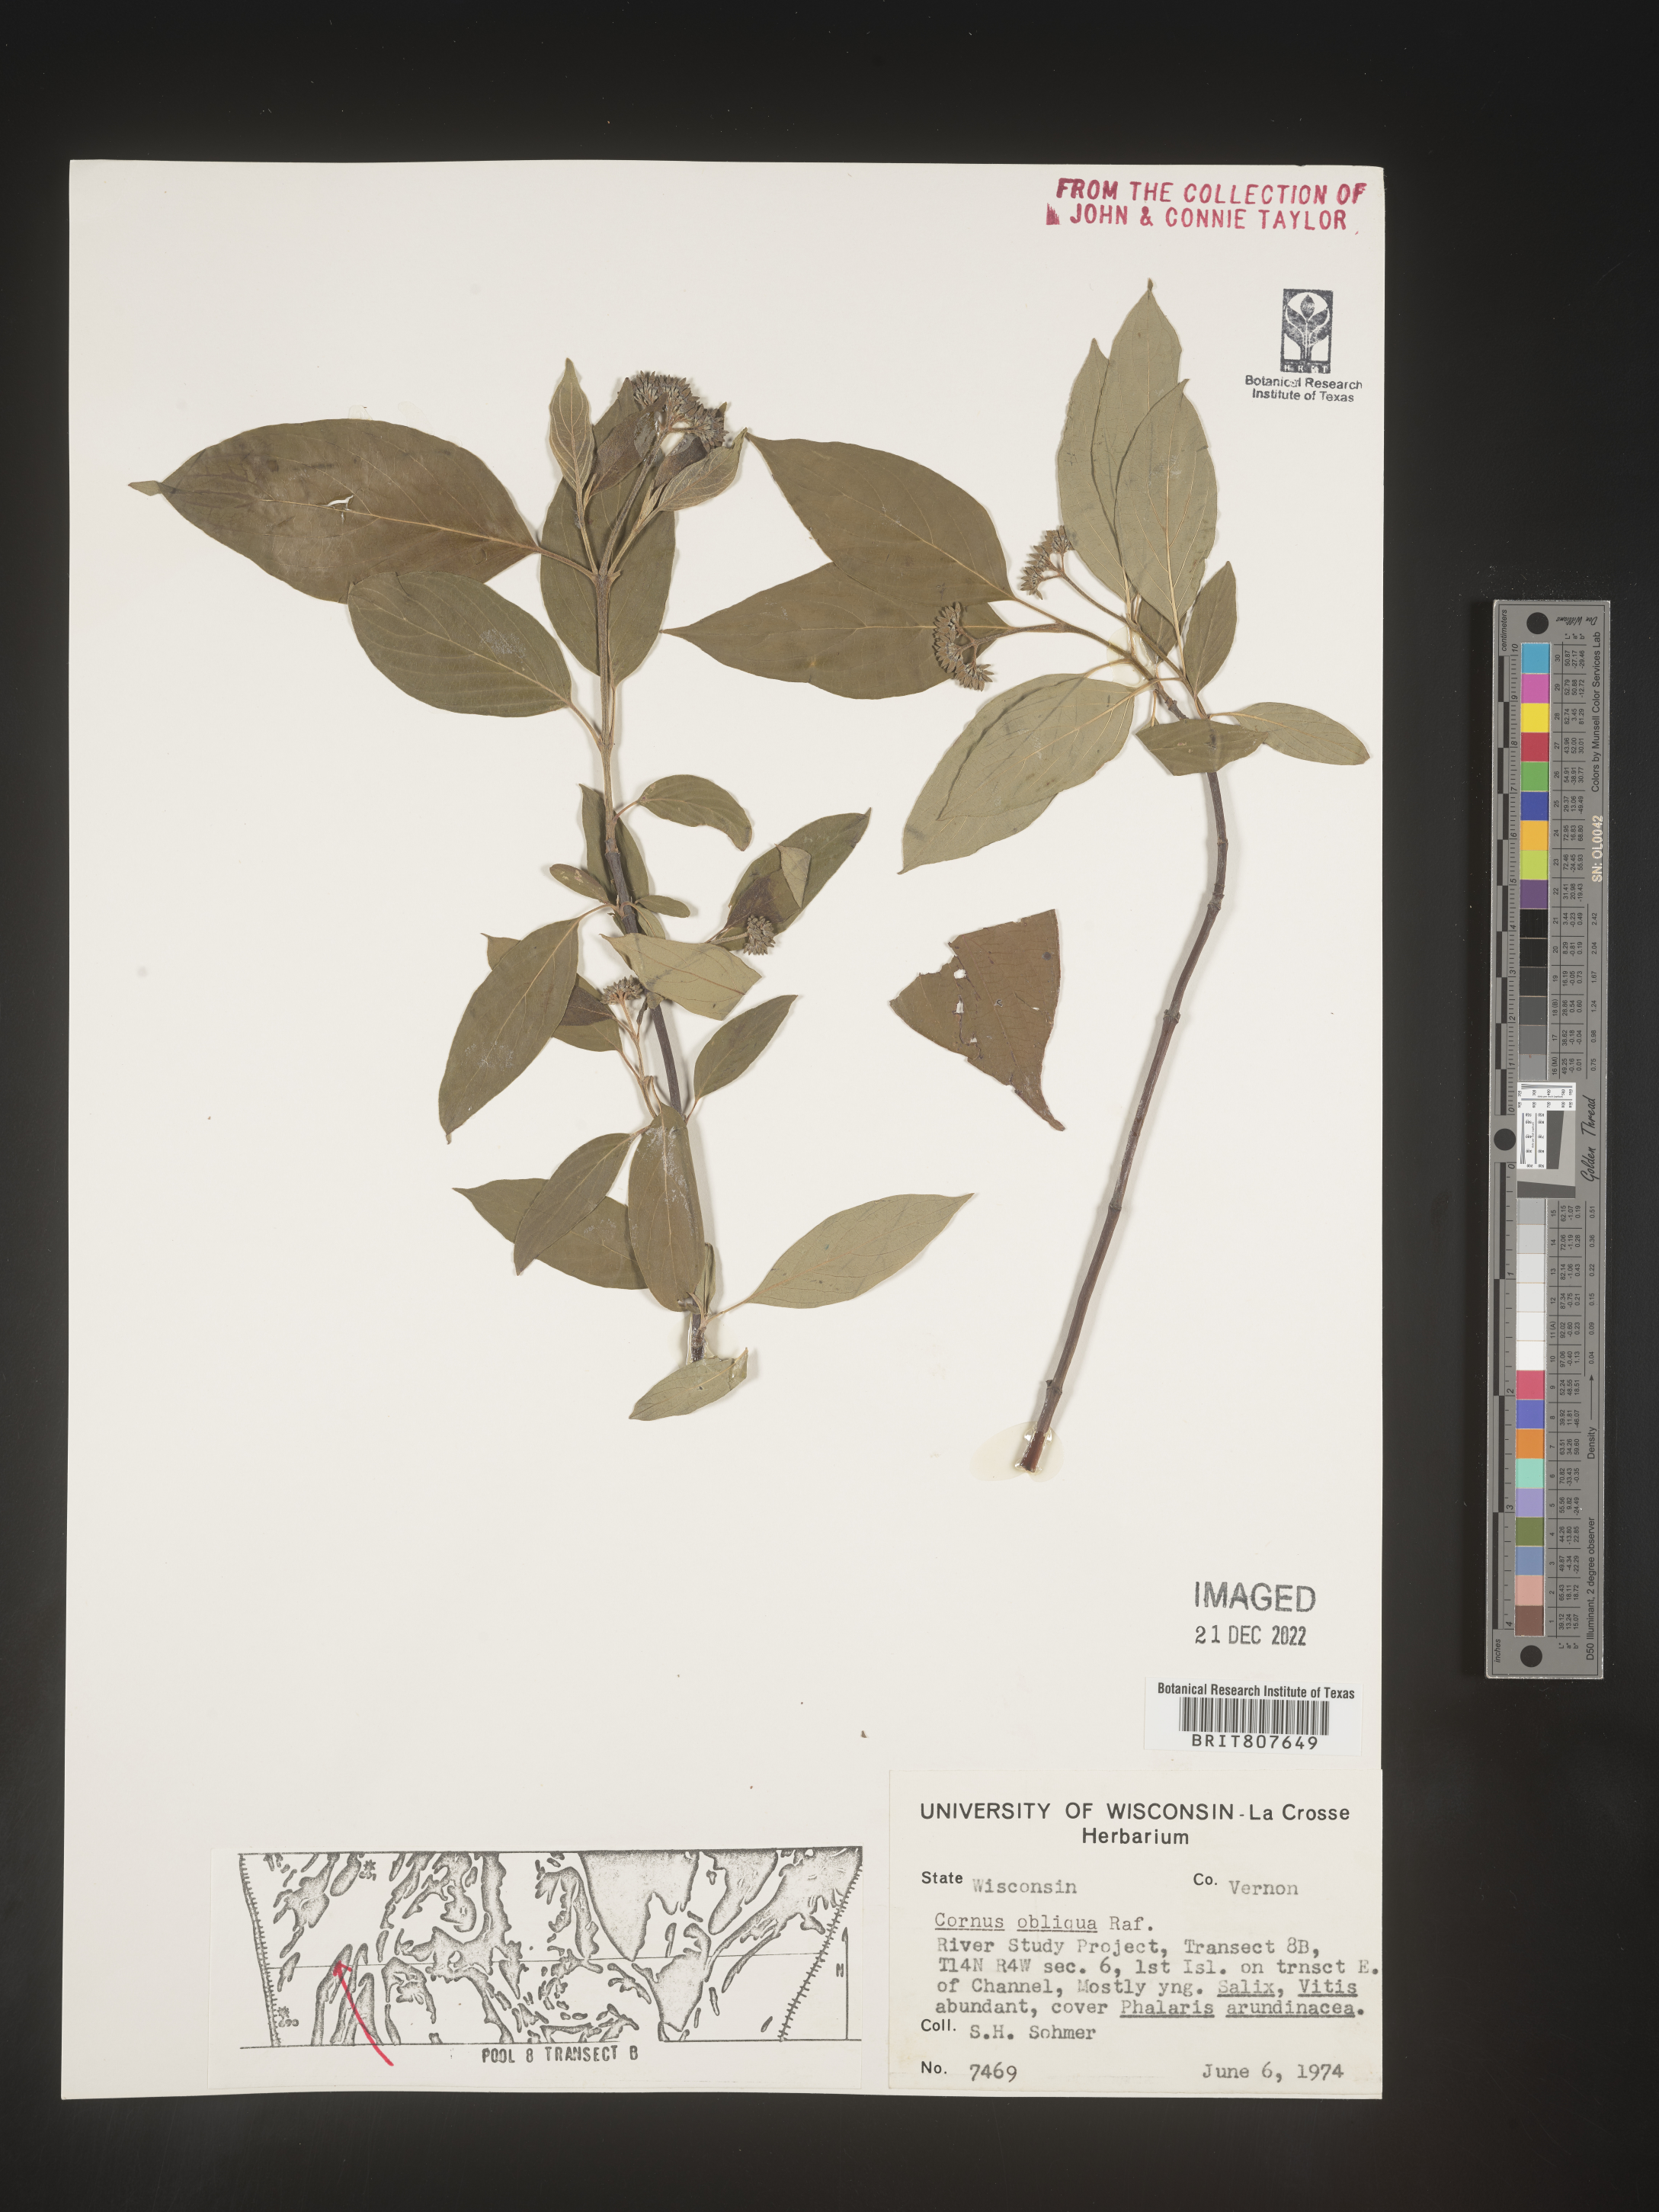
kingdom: Plantae
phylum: Tracheophyta
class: Magnoliopsida
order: Cornales
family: Cornaceae
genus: Cornus
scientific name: Cornus obliqua
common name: Pale dogwood
